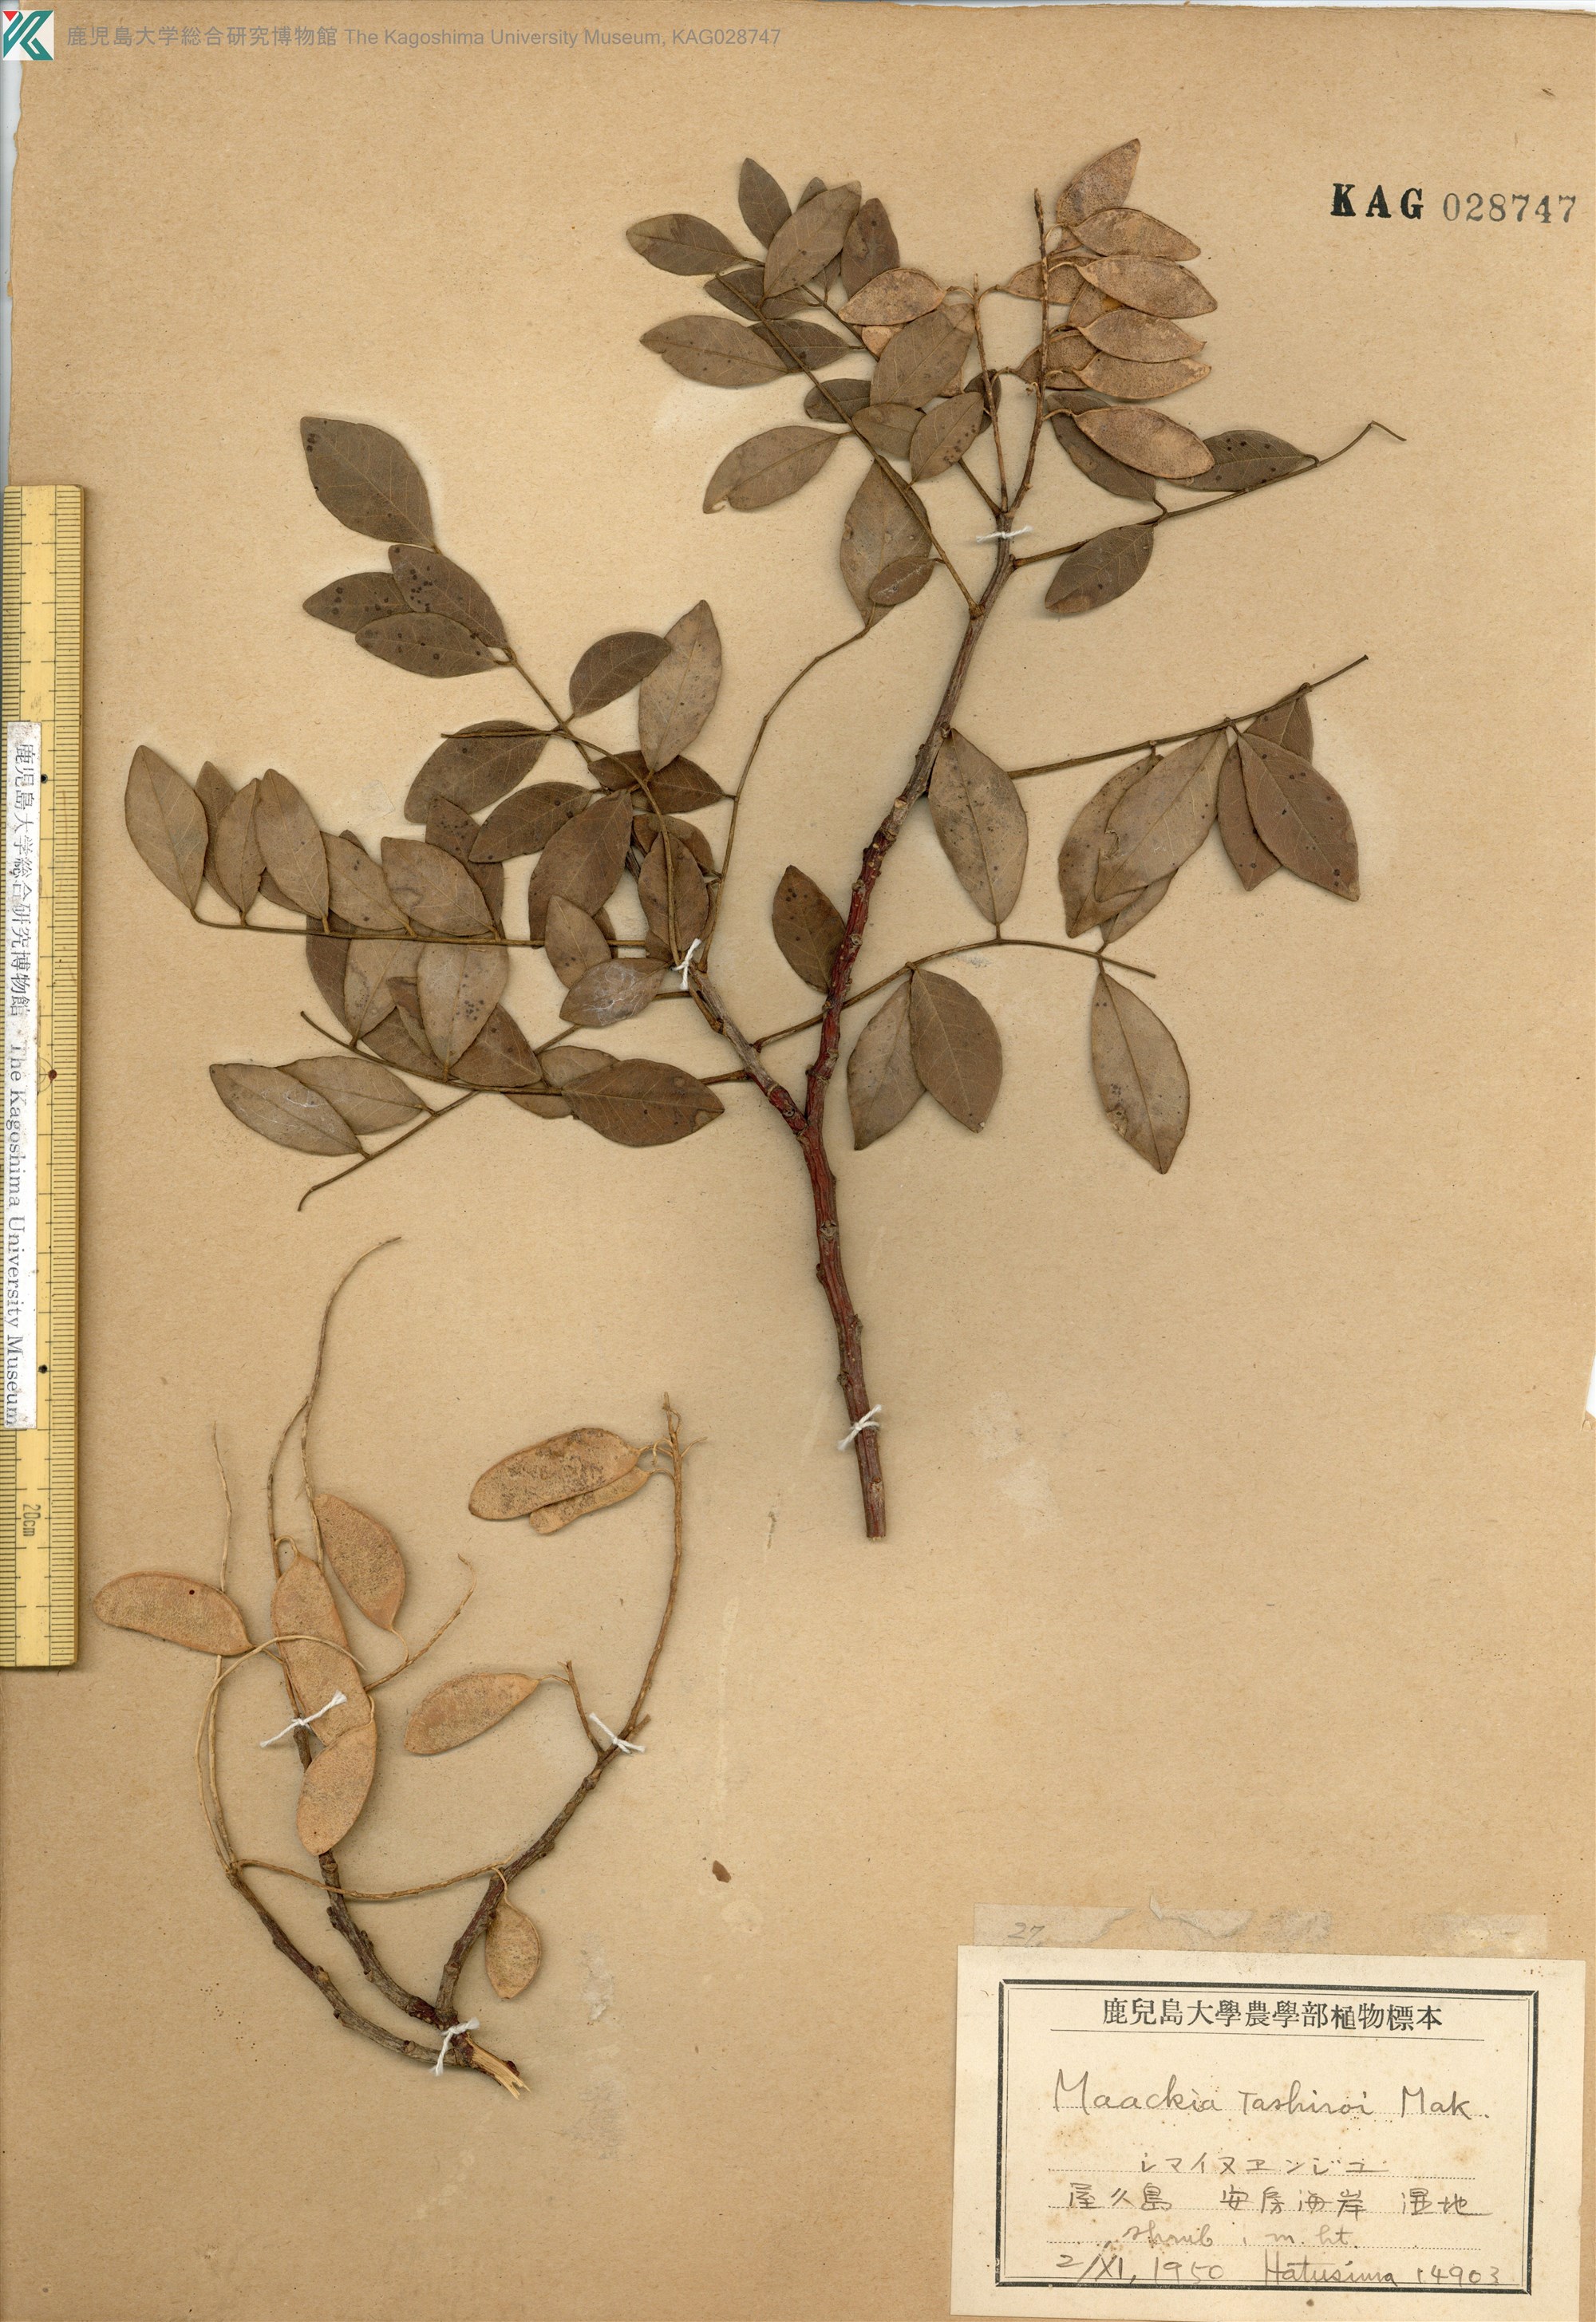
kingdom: Plantae
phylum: Tracheophyta
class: Magnoliopsida
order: Fabales
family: Fabaceae
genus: Maackia
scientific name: Maackia tashiroi
